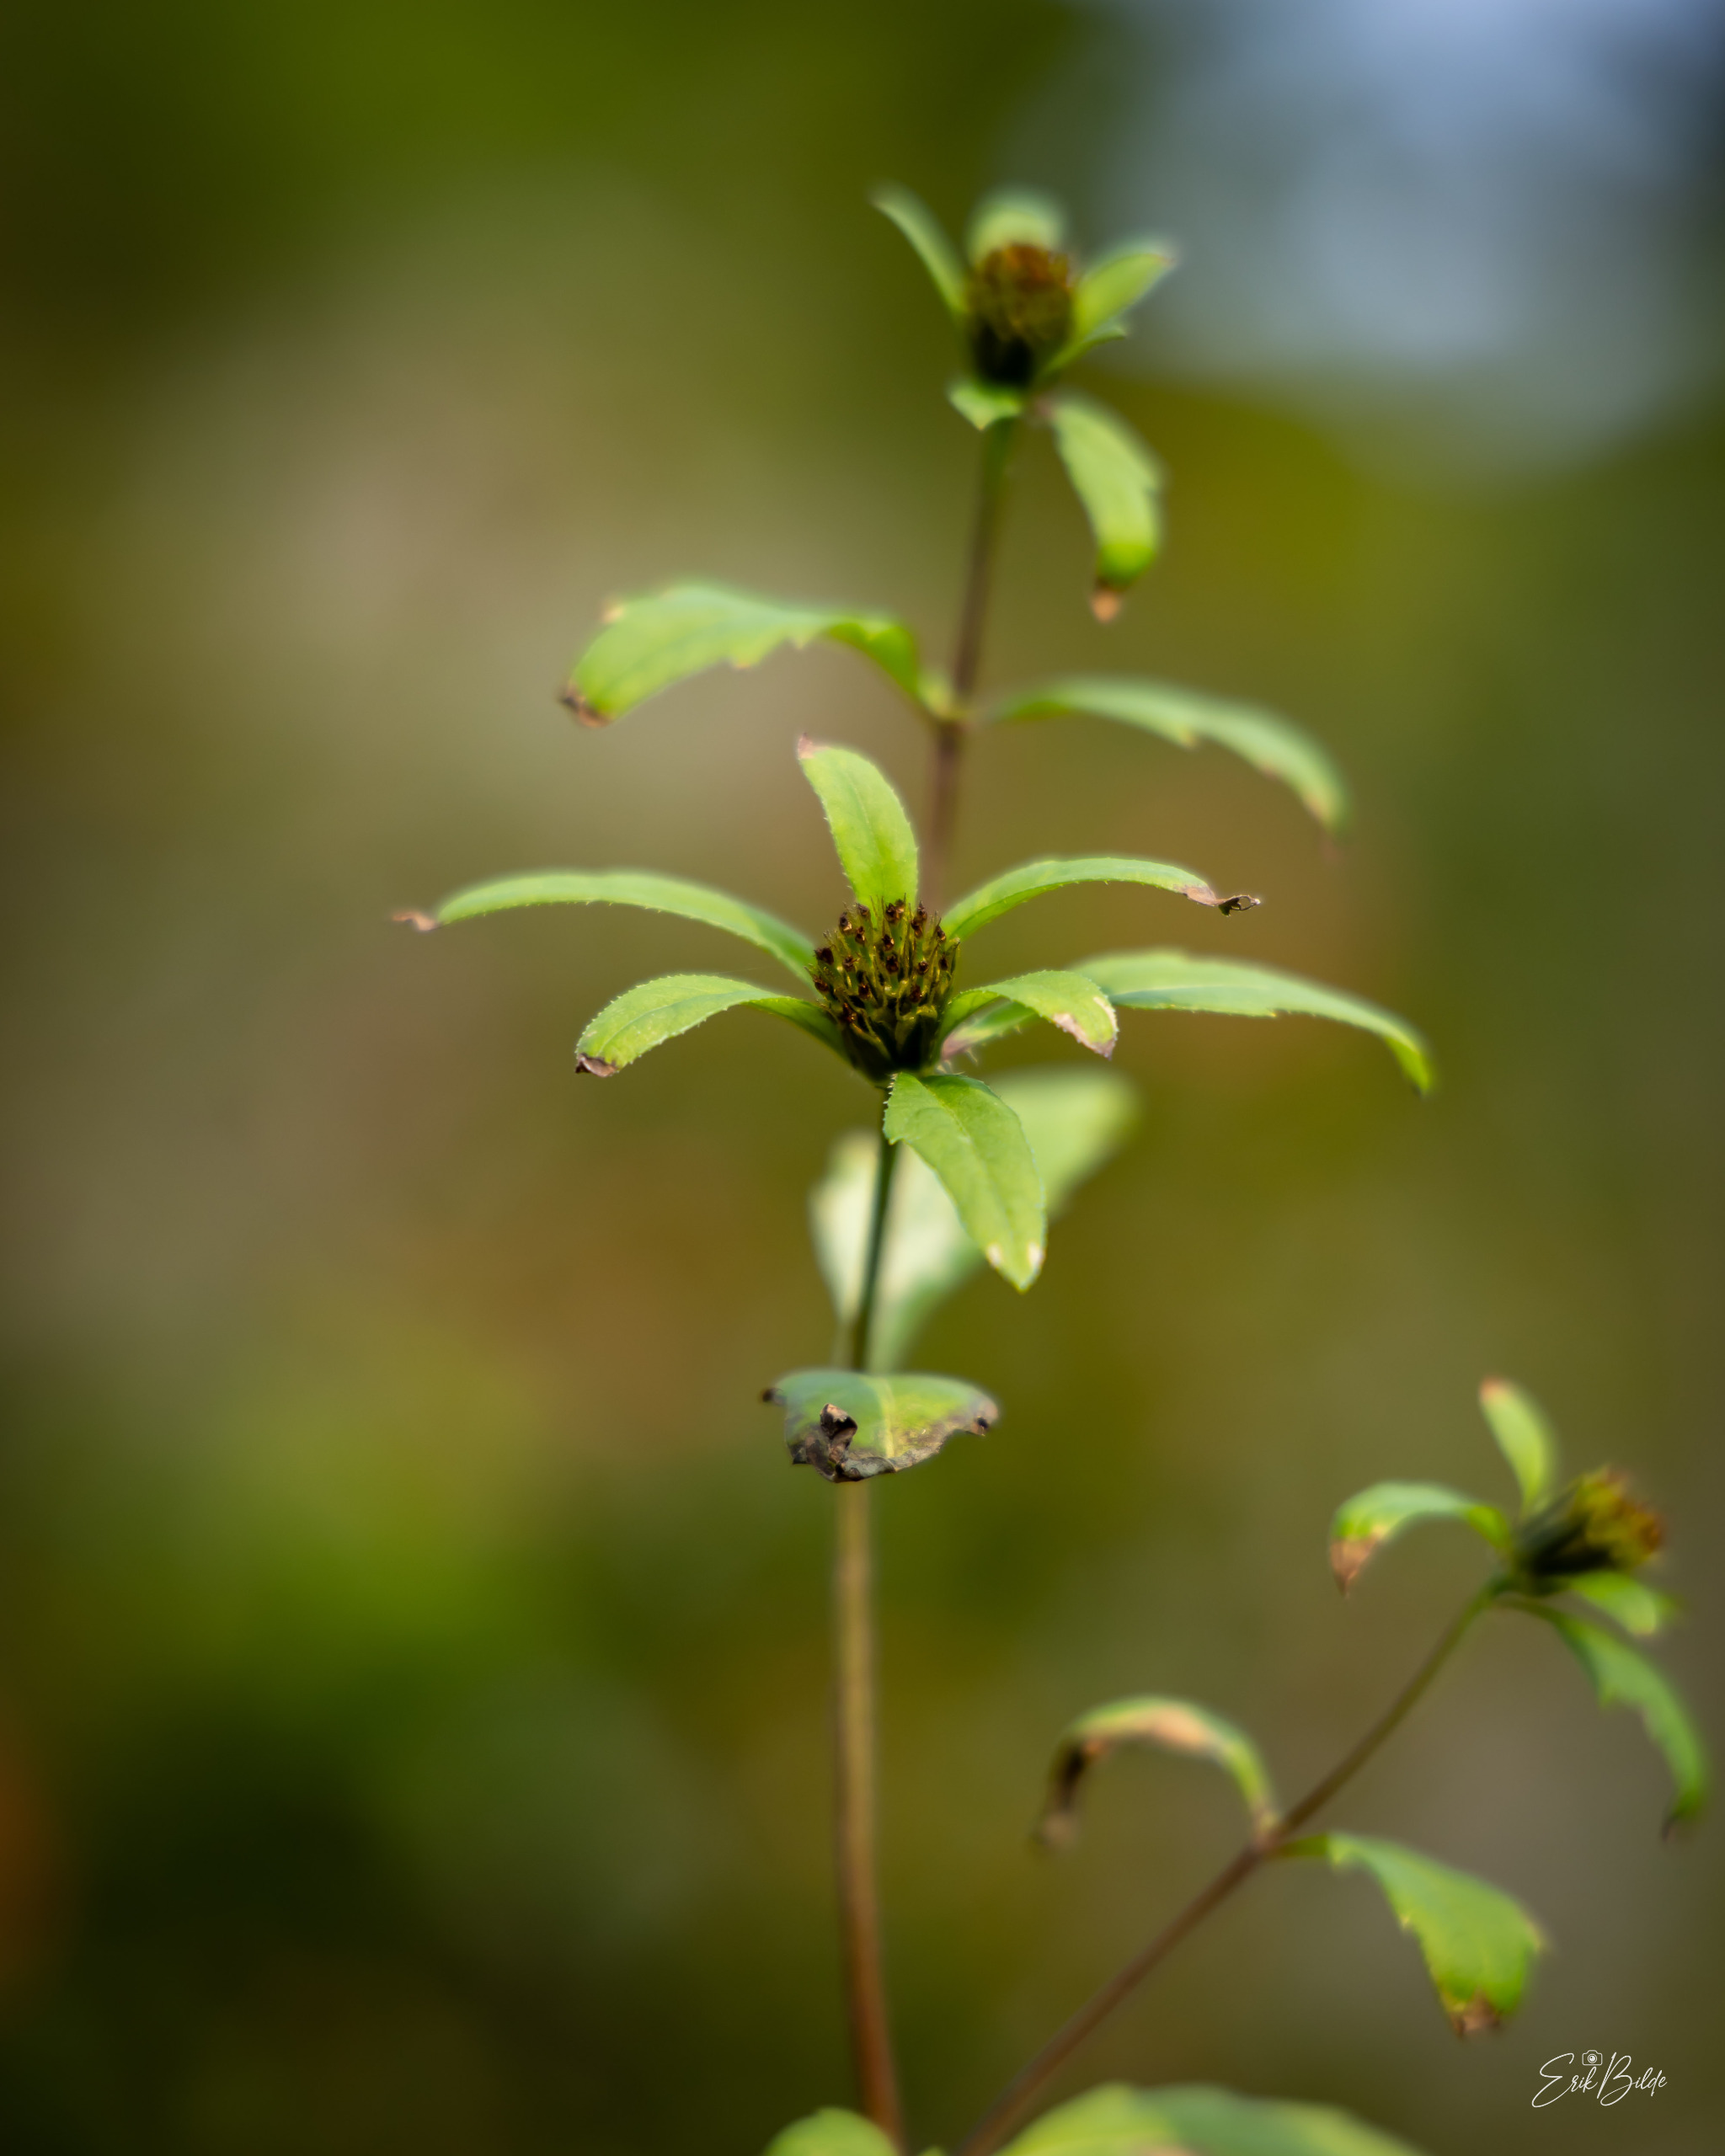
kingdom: Plantae
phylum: Tracheophyta
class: Magnoliopsida
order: Asterales
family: Asteraceae
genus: Bidens
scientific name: Bidens tripartita
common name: Fliget brøndsel
